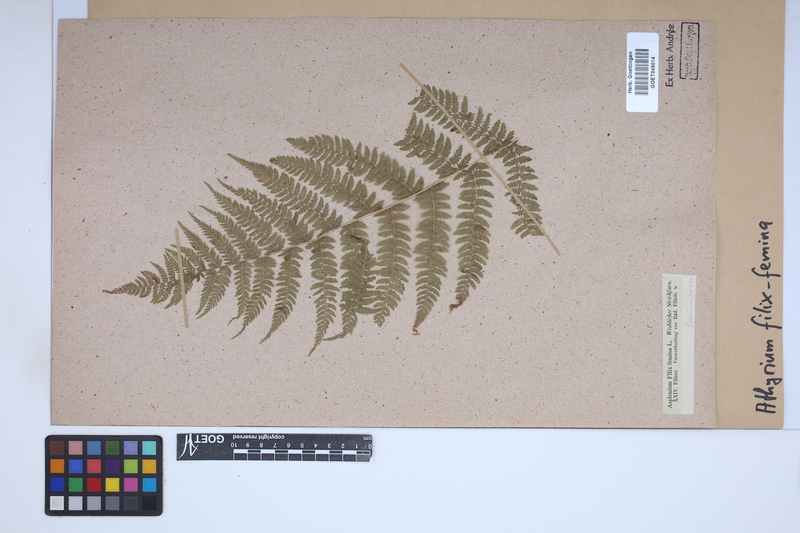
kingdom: Plantae
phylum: Tracheophyta
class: Polypodiopsida
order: Polypodiales
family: Athyriaceae
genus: Athyrium
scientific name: Athyrium filix-femina
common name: Lady fern
